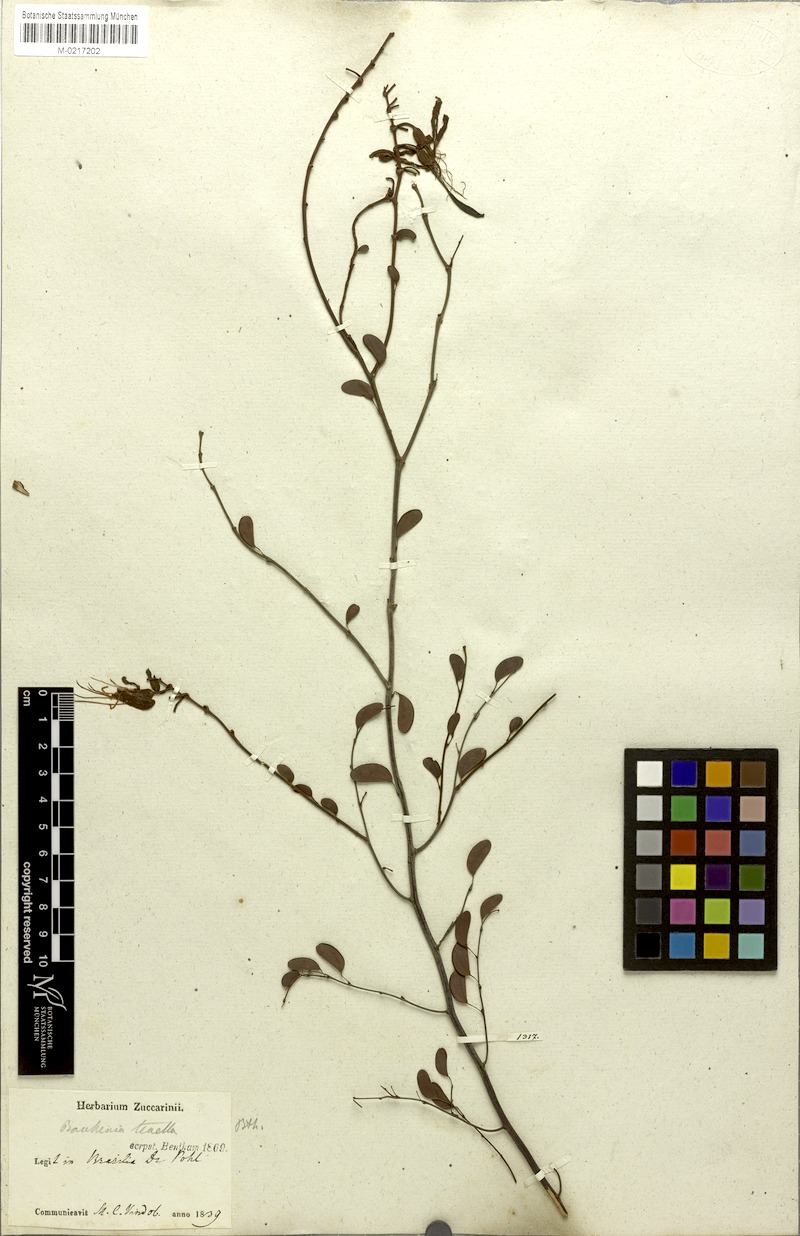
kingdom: Plantae
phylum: Tracheophyta
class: Magnoliopsida
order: Fabales
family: Fabaceae
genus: Bauhinia
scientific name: Bauhinia tenella
